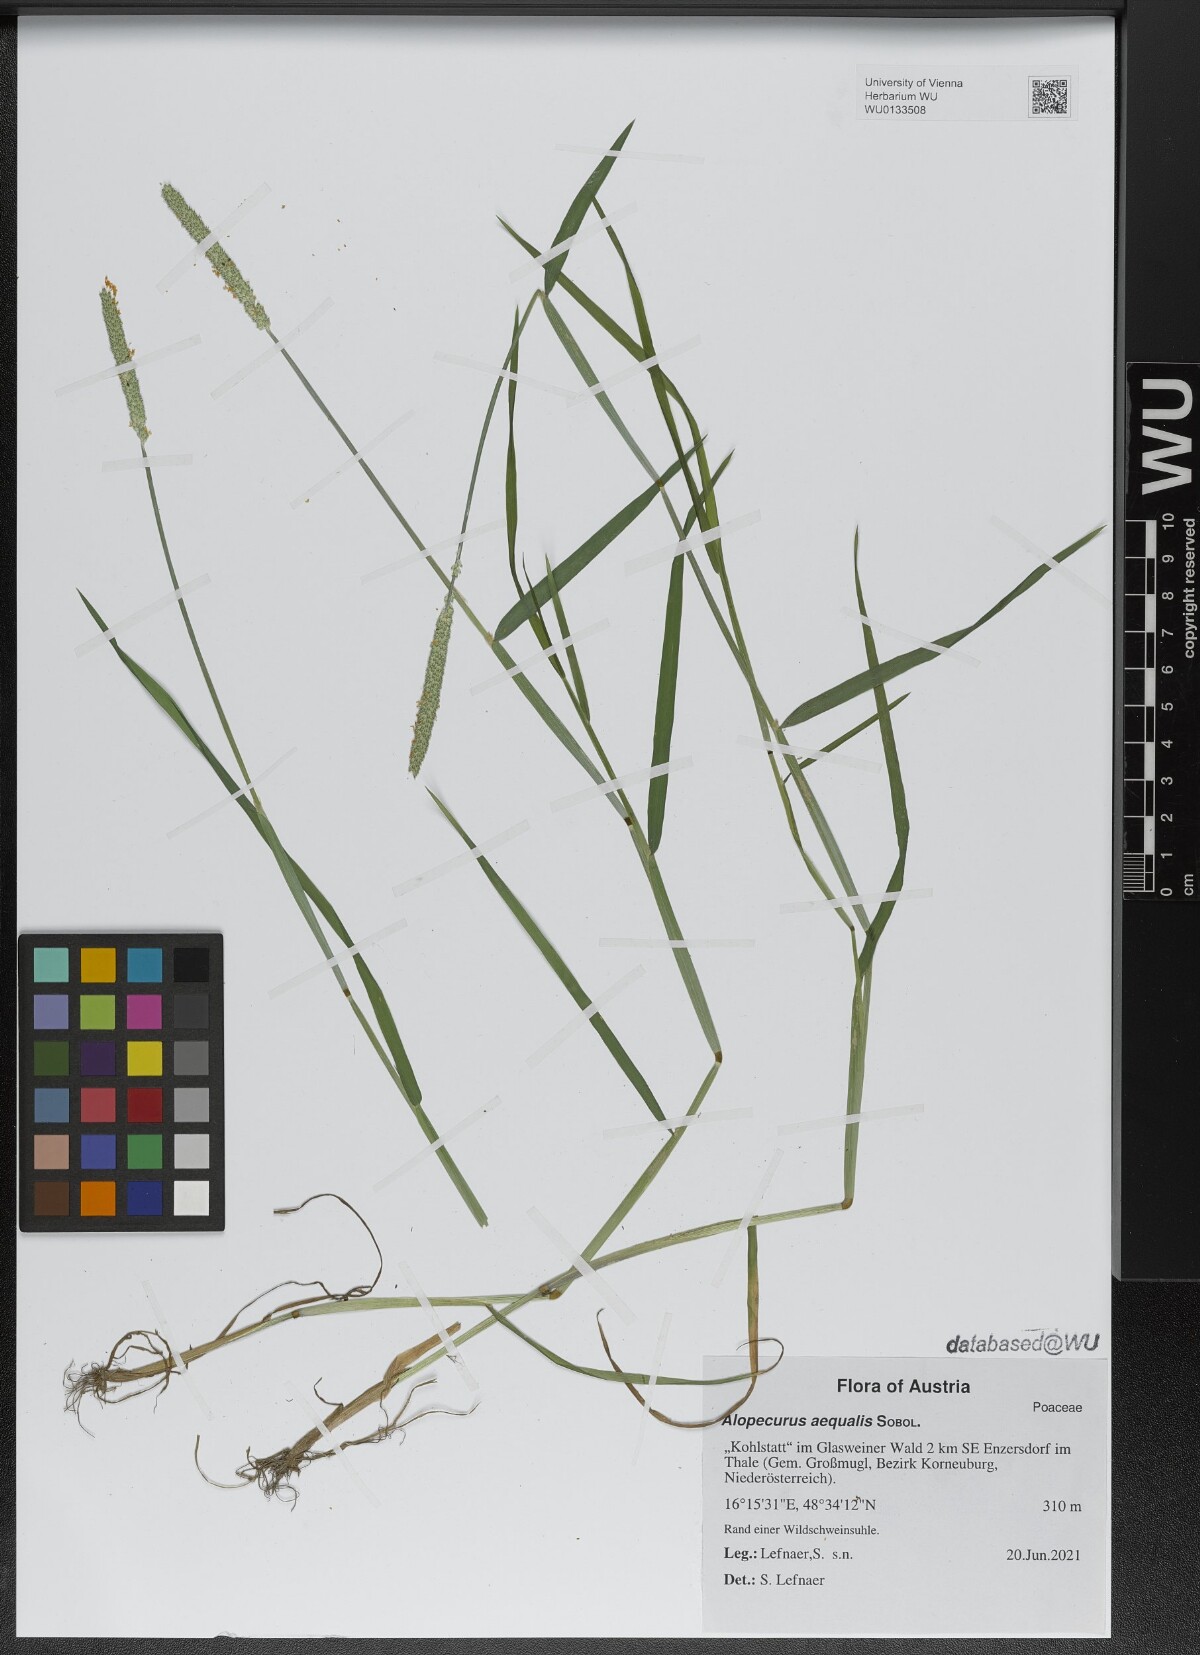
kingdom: Plantae
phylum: Tracheophyta
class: Liliopsida
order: Poales
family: Poaceae
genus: Alopecurus
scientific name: Alopecurus aequalis
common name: Orange foxtail
